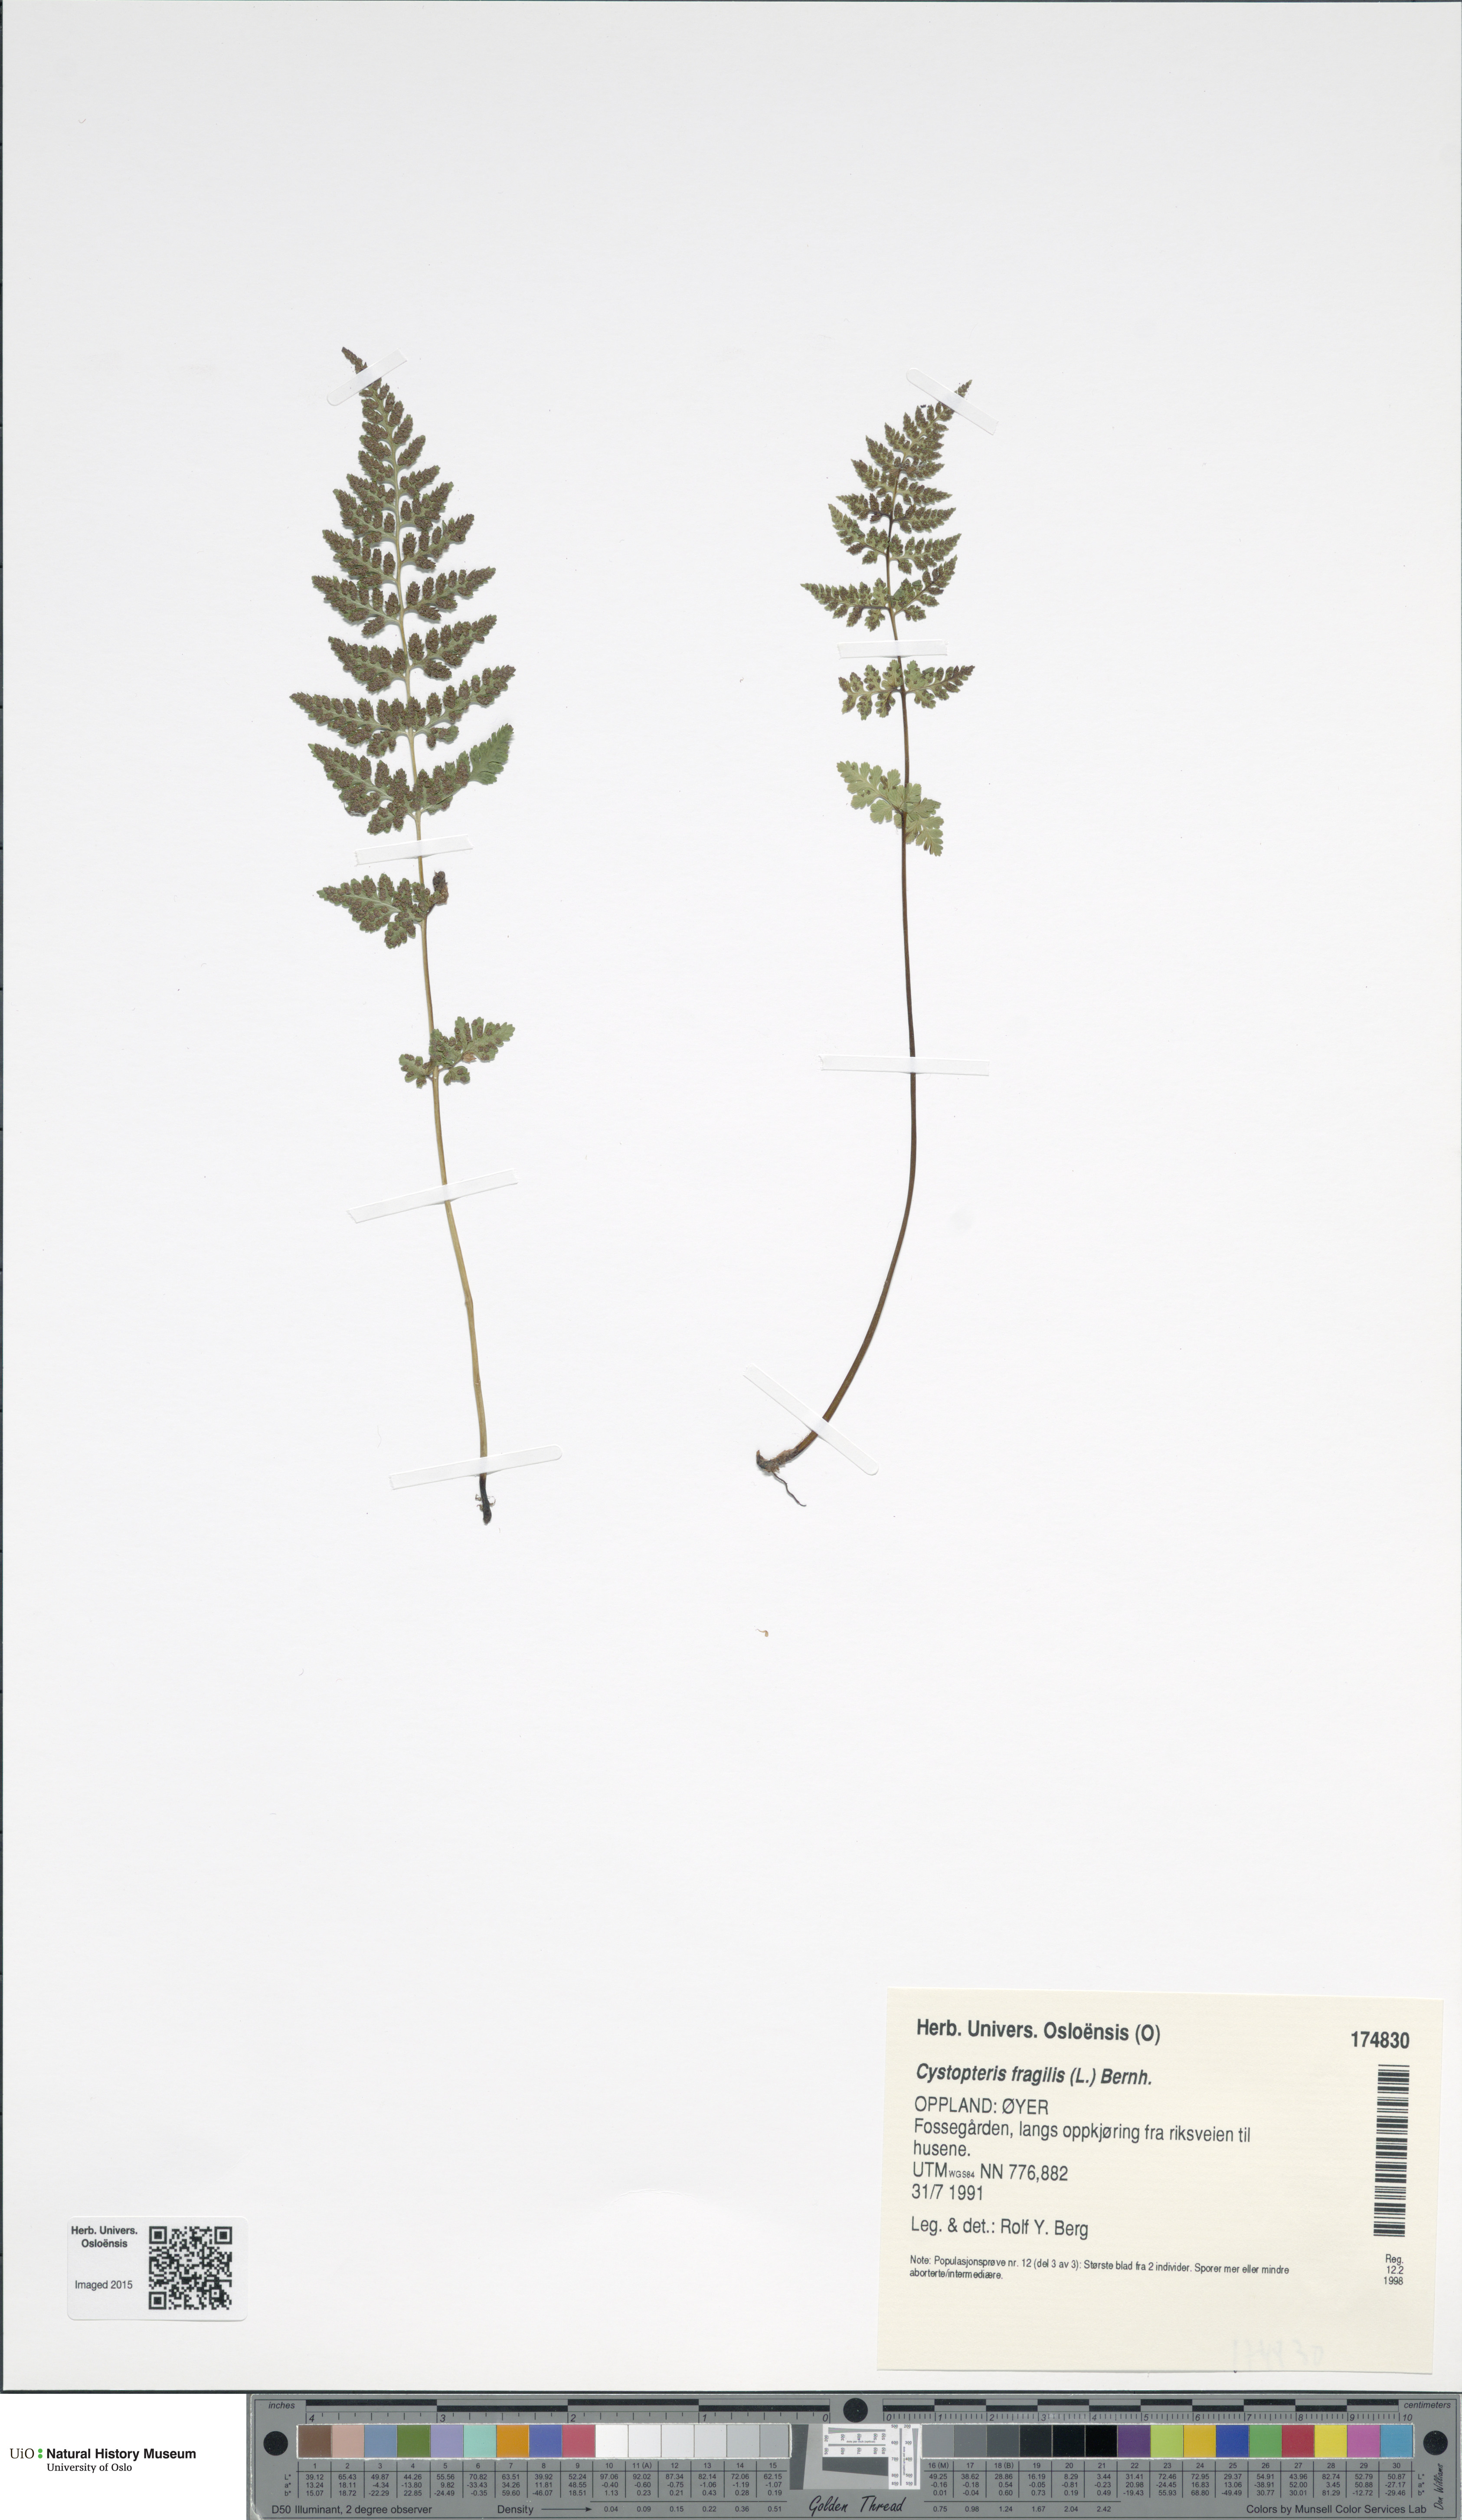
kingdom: Plantae
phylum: Tracheophyta
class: Polypodiopsida
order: Polypodiales
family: Cystopteridaceae
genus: Cystopteris
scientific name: Cystopteris fragilis
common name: Brittle bladder fern
